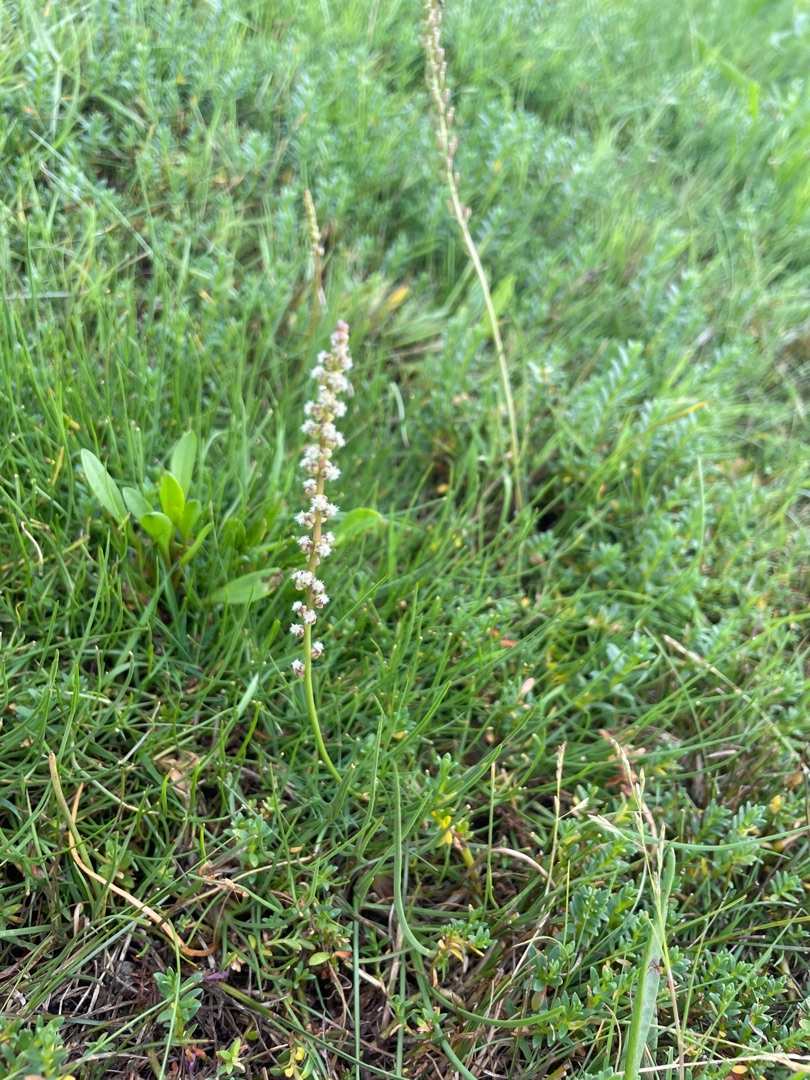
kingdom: Plantae
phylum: Tracheophyta
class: Liliopsida
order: Alismatales
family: Juncaginaceae
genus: Triglochin
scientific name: Triglochin maritima
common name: Strand-trehage
